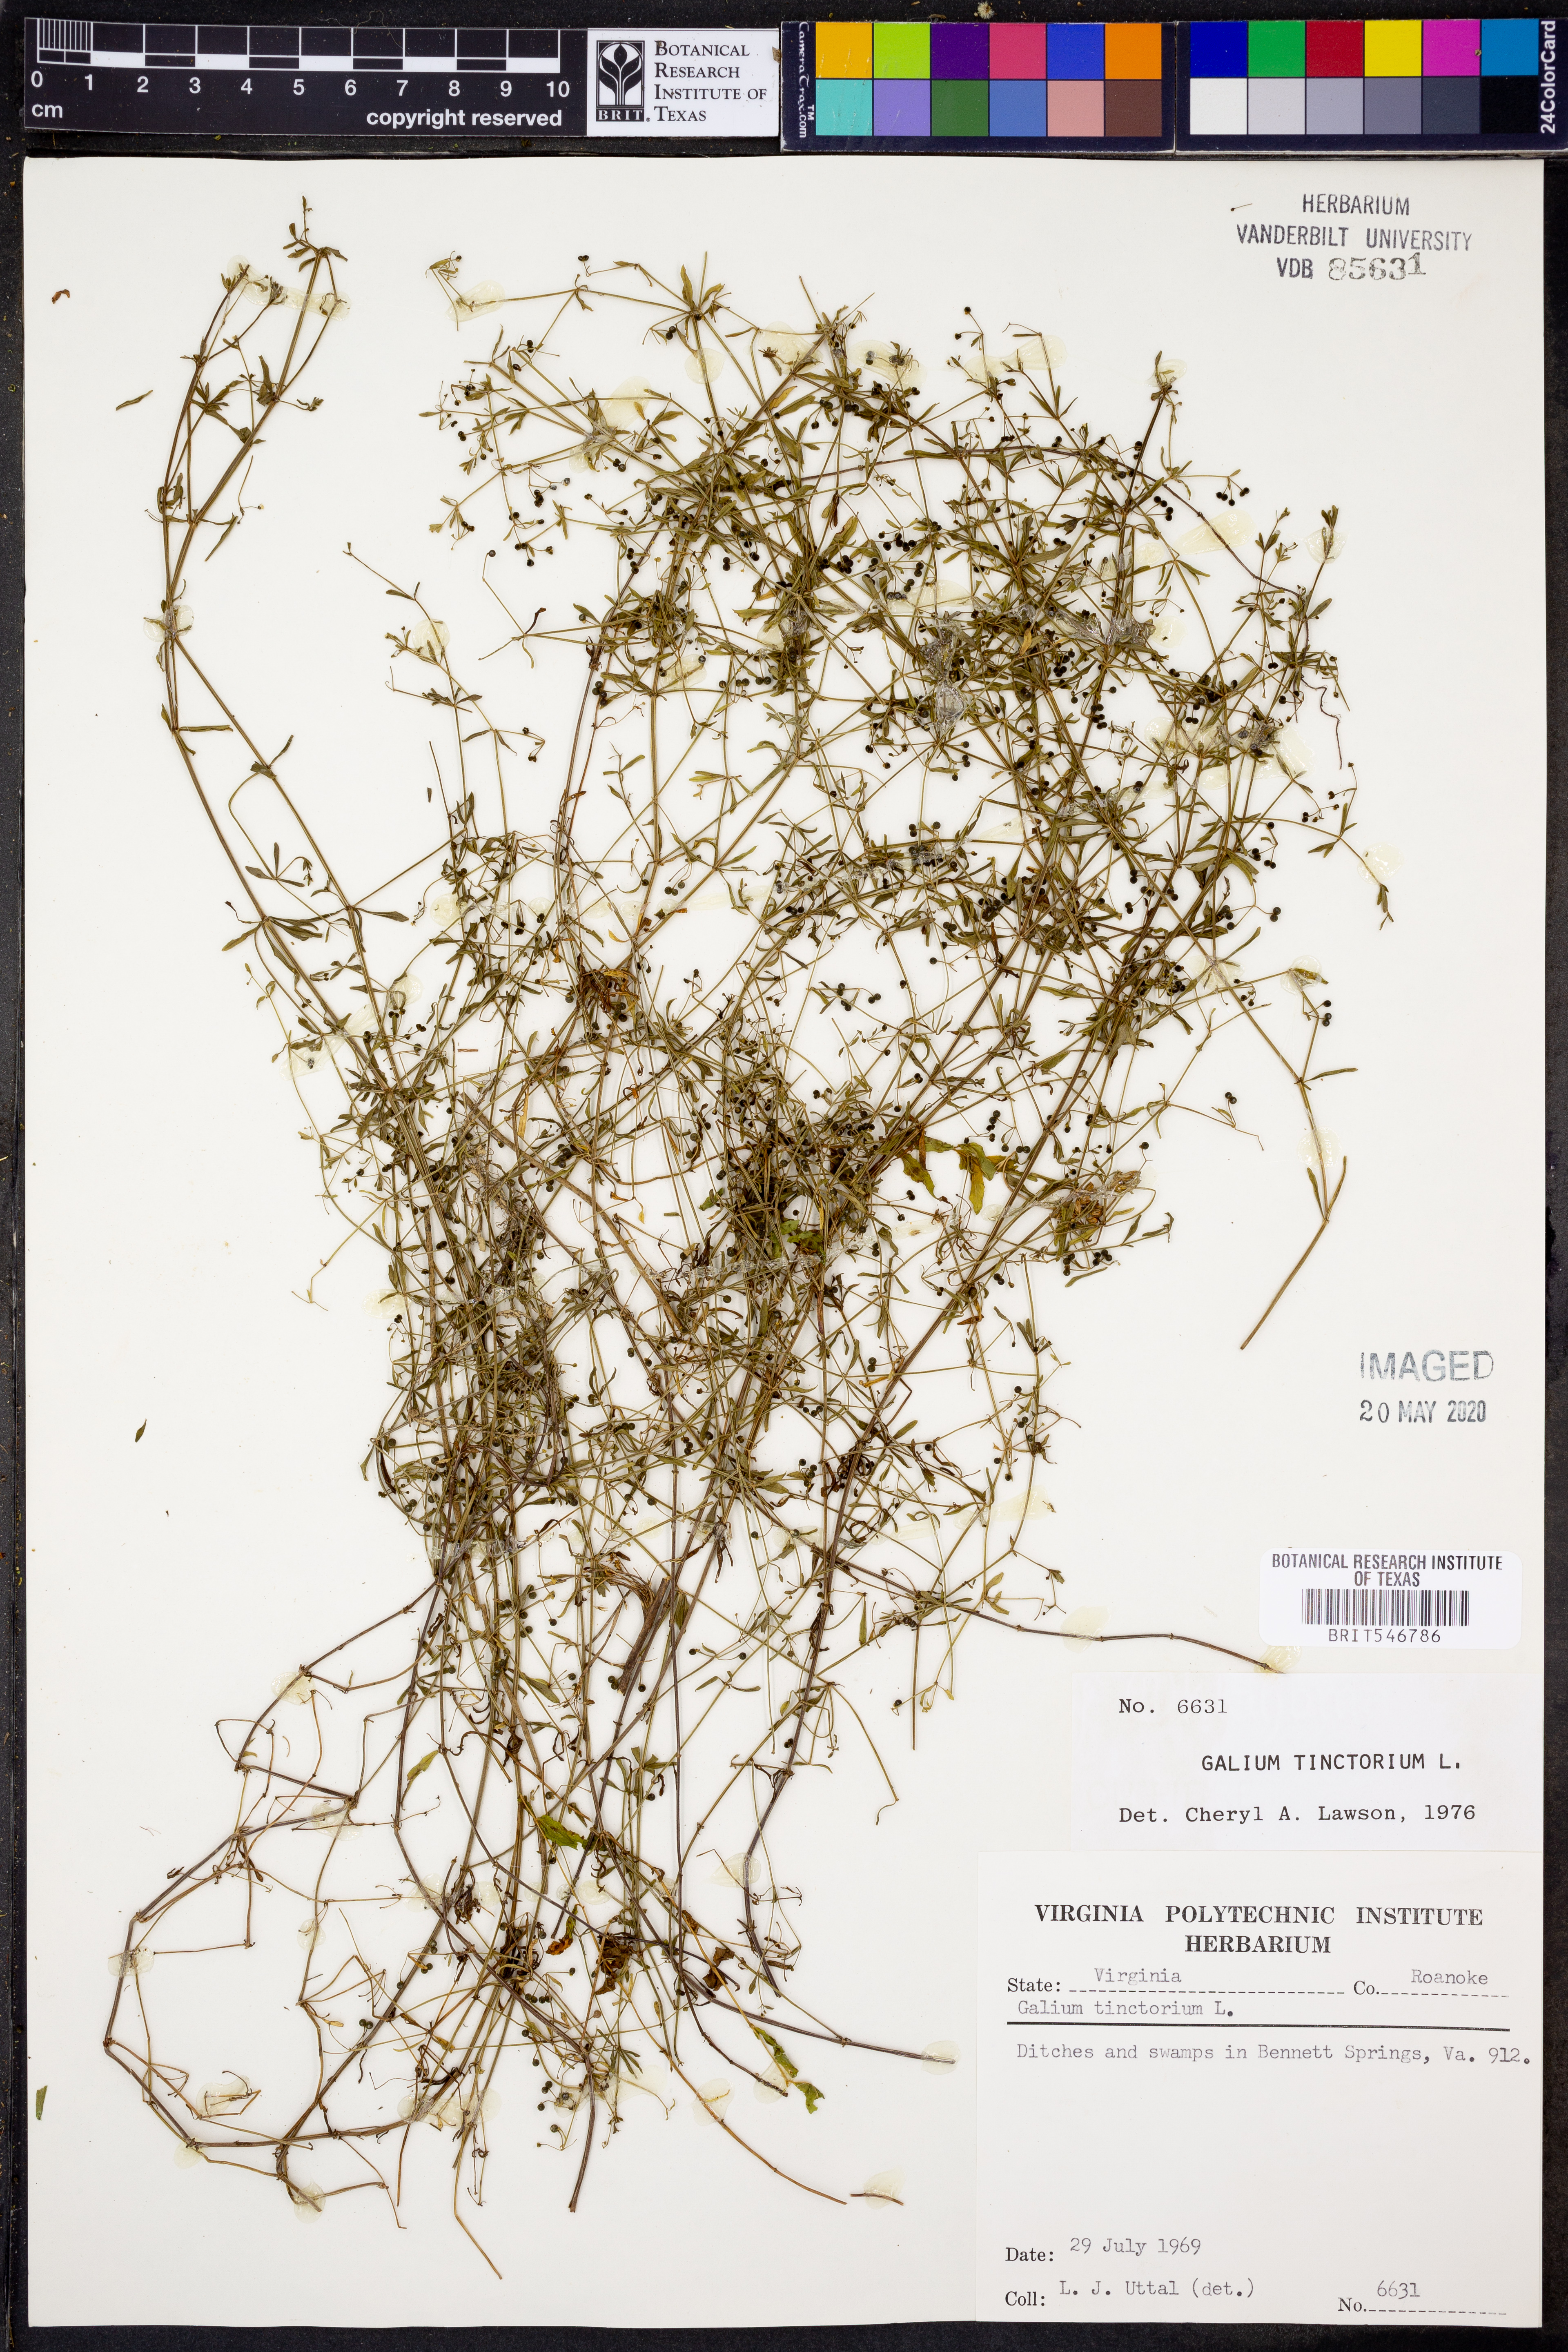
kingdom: Plantae
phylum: Tracheophyta
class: Magnoliopsida
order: Gentianales
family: Rubiaceae
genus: Asperula
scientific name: Asperula tinctoria
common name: Dyer's woodruff
